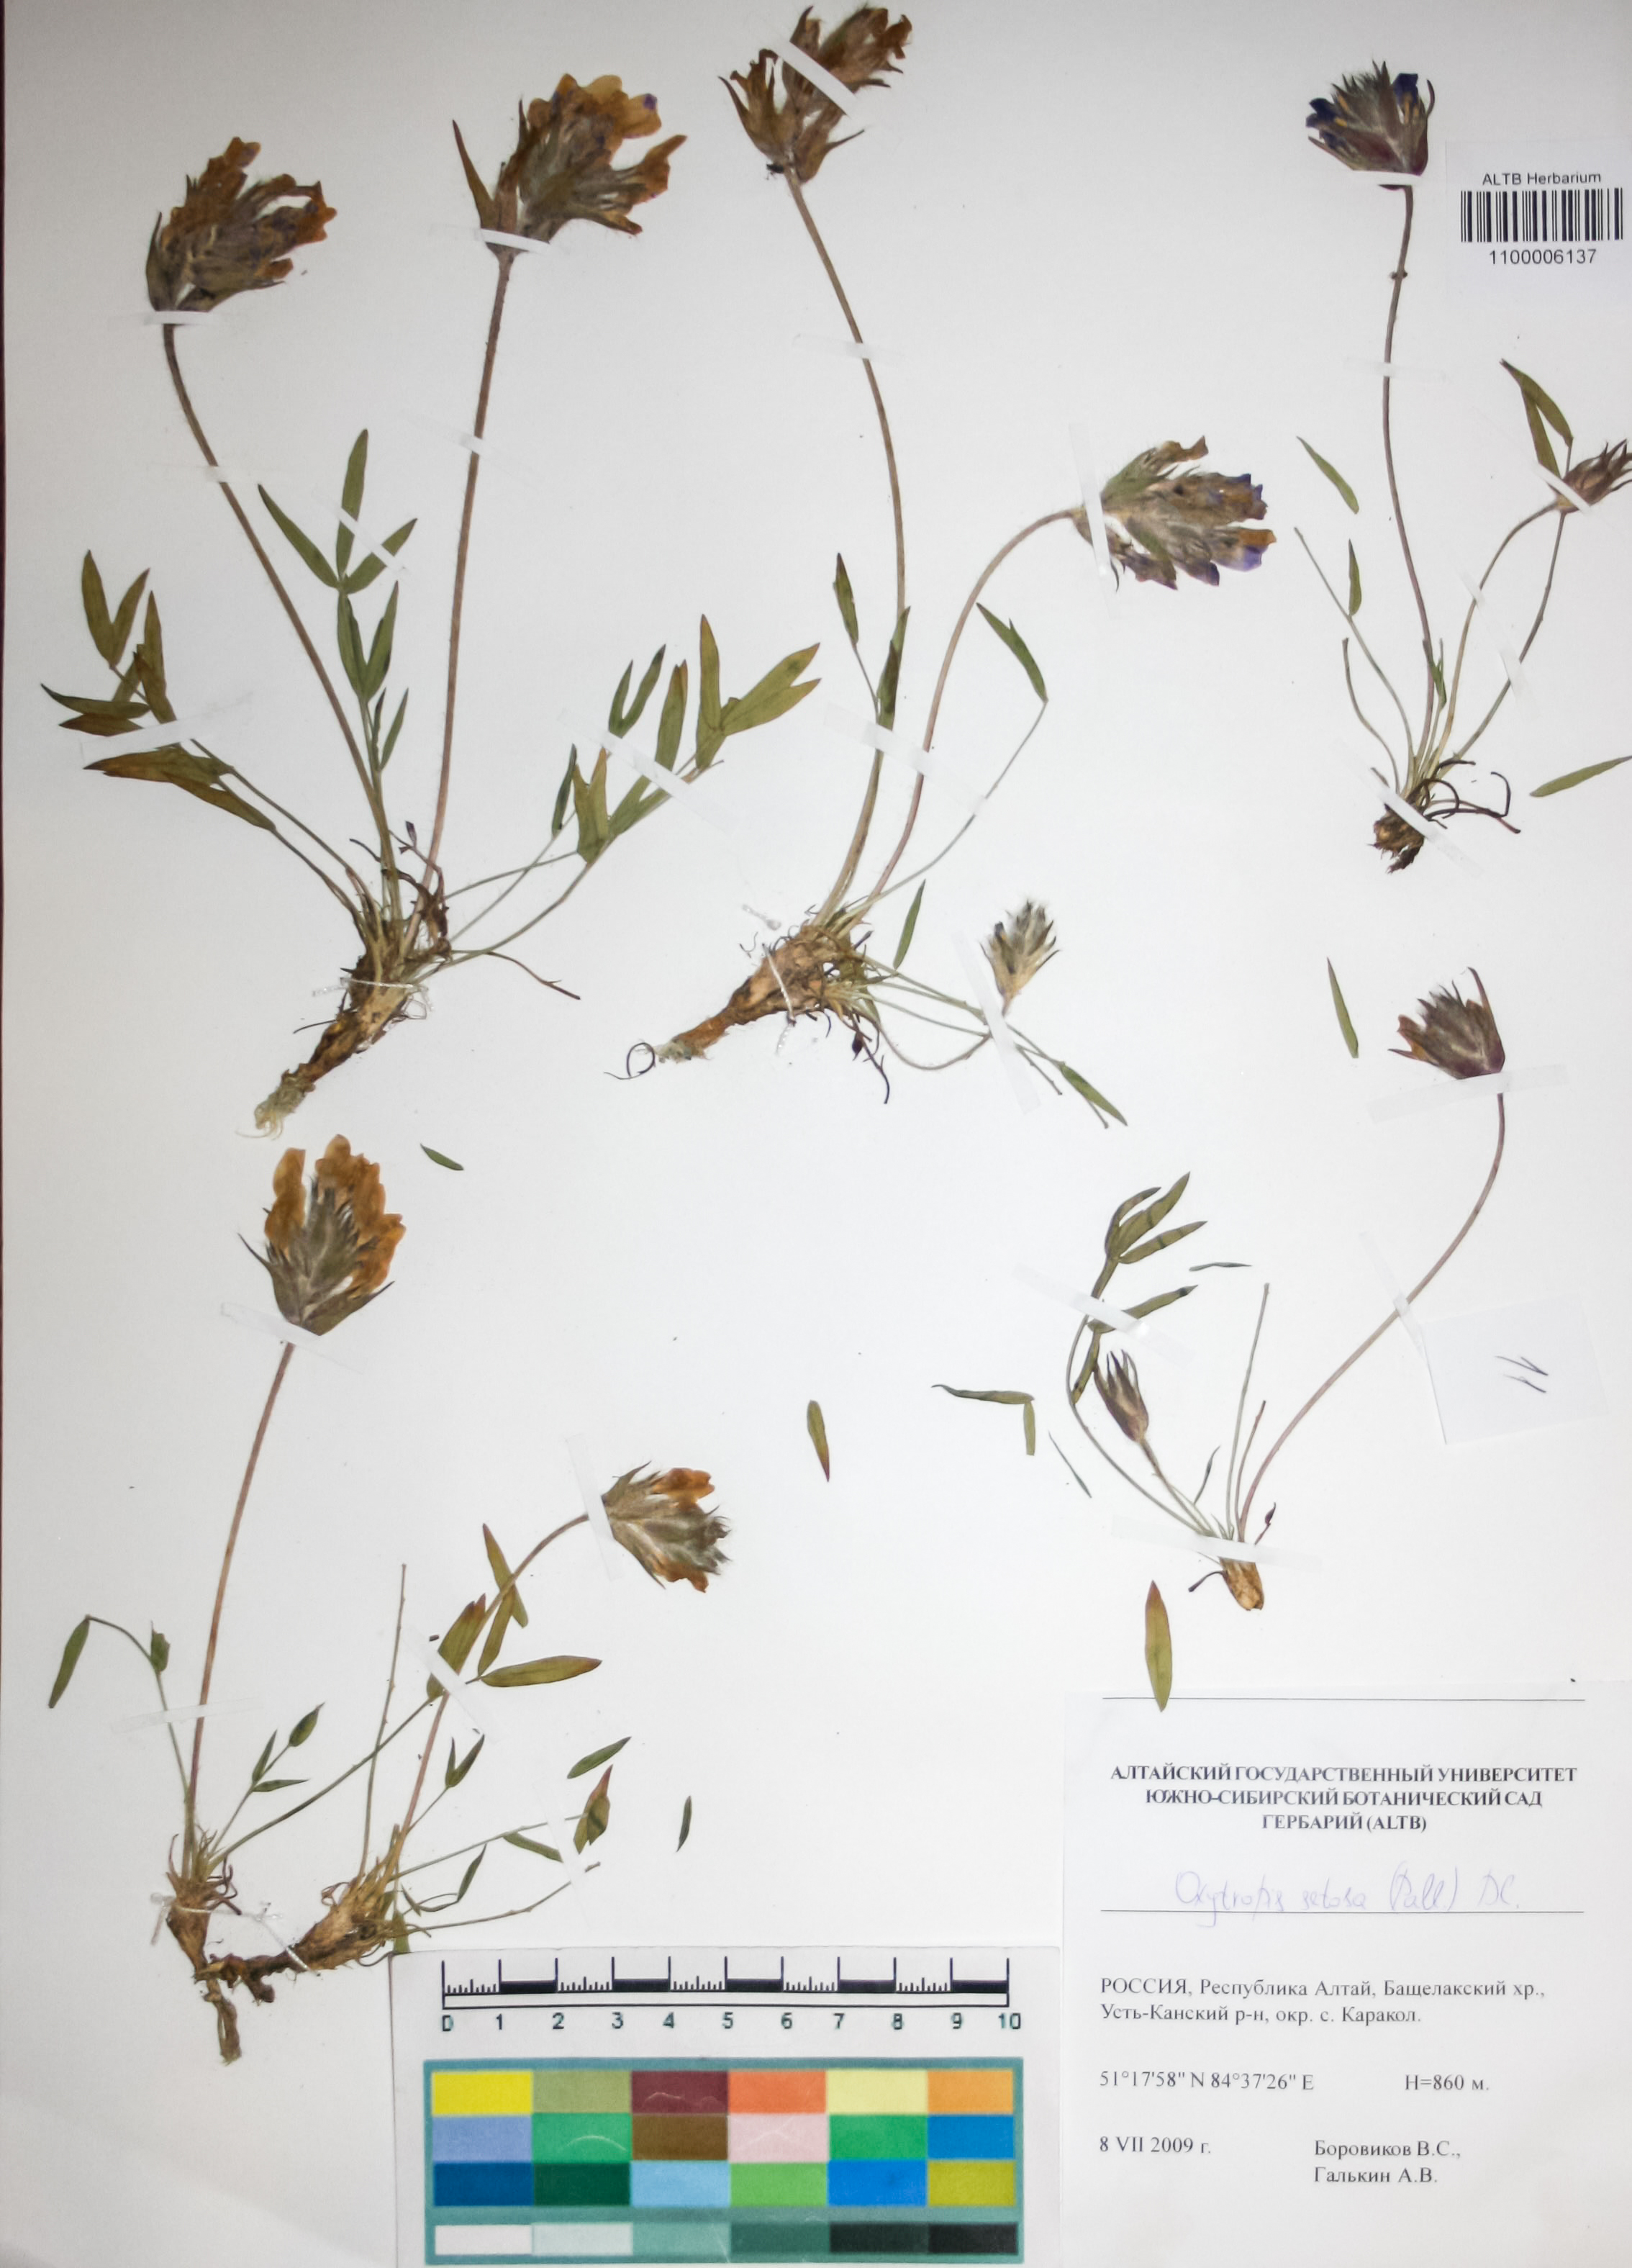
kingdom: Plantae
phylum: Tracheophyta
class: Magnoliopsida
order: Fabales
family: Fabaceae
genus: Oxytropis
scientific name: Oxytropis setosa
